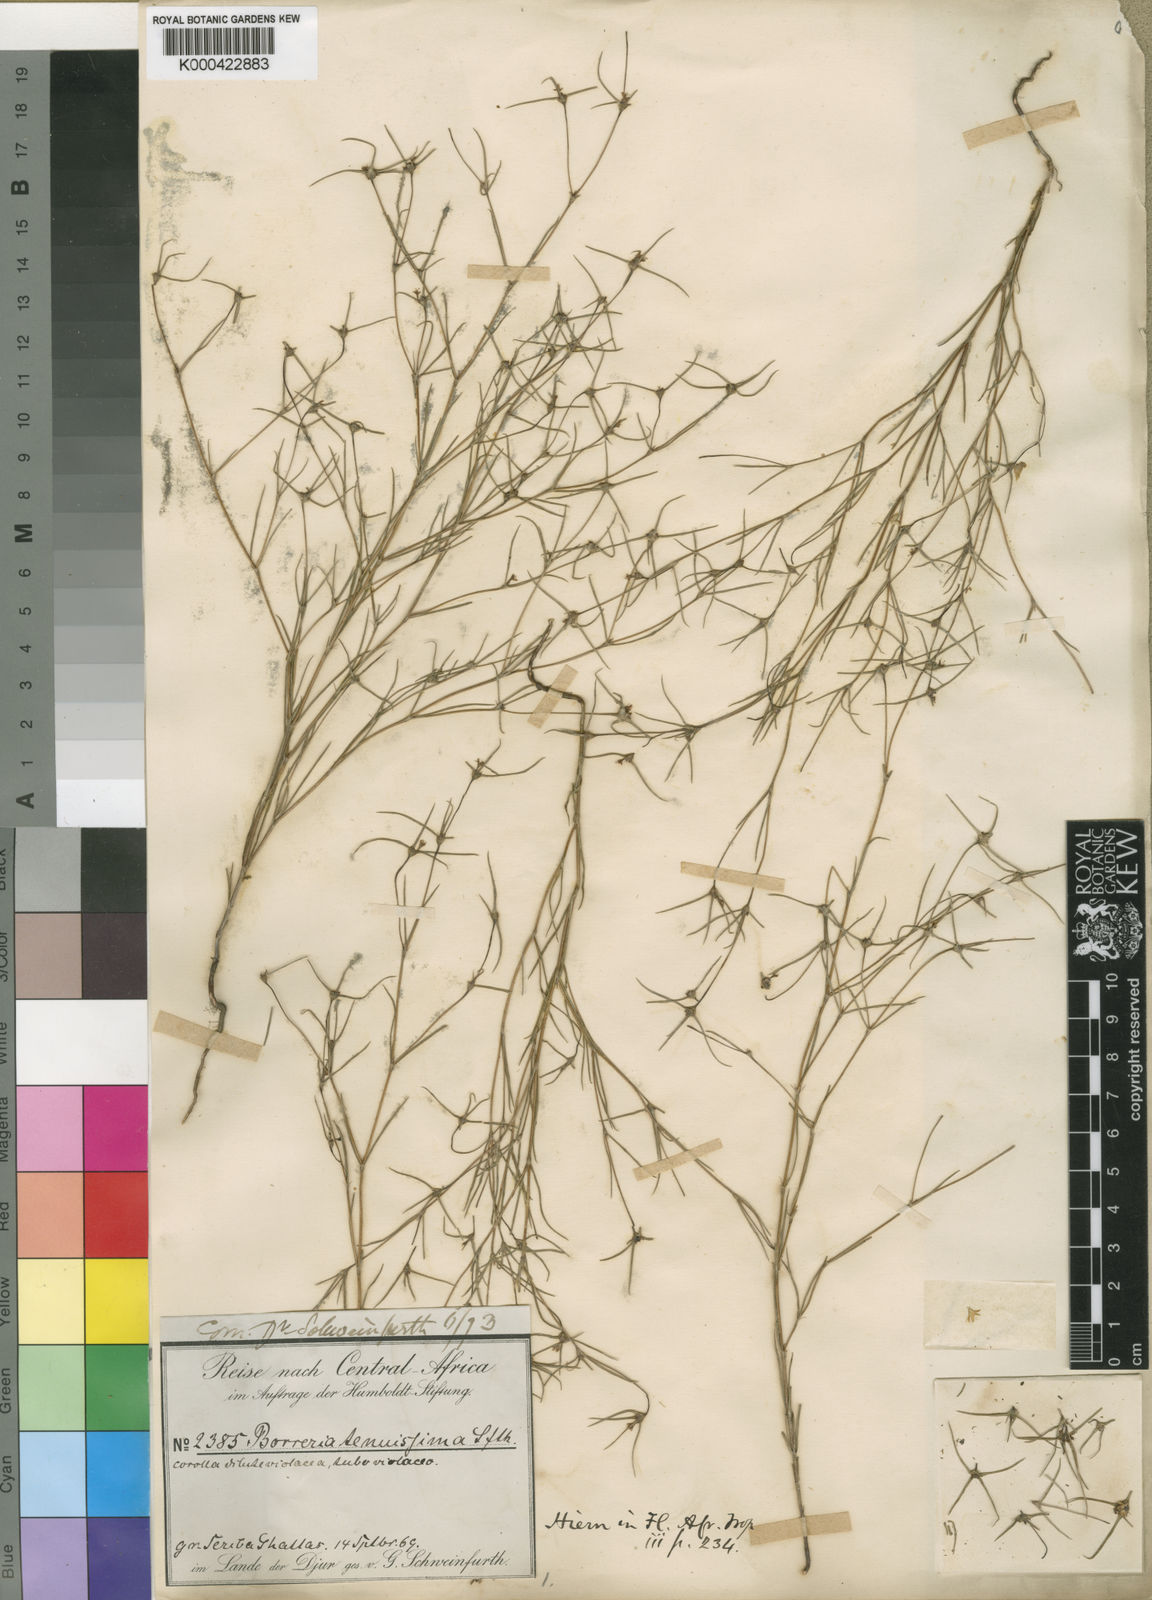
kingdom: Plantae
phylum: Tracheophyta
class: Magnoliopsida
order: Gentianales
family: Rubiaceae
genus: Spermacoce
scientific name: Spermacoce tenuissima
